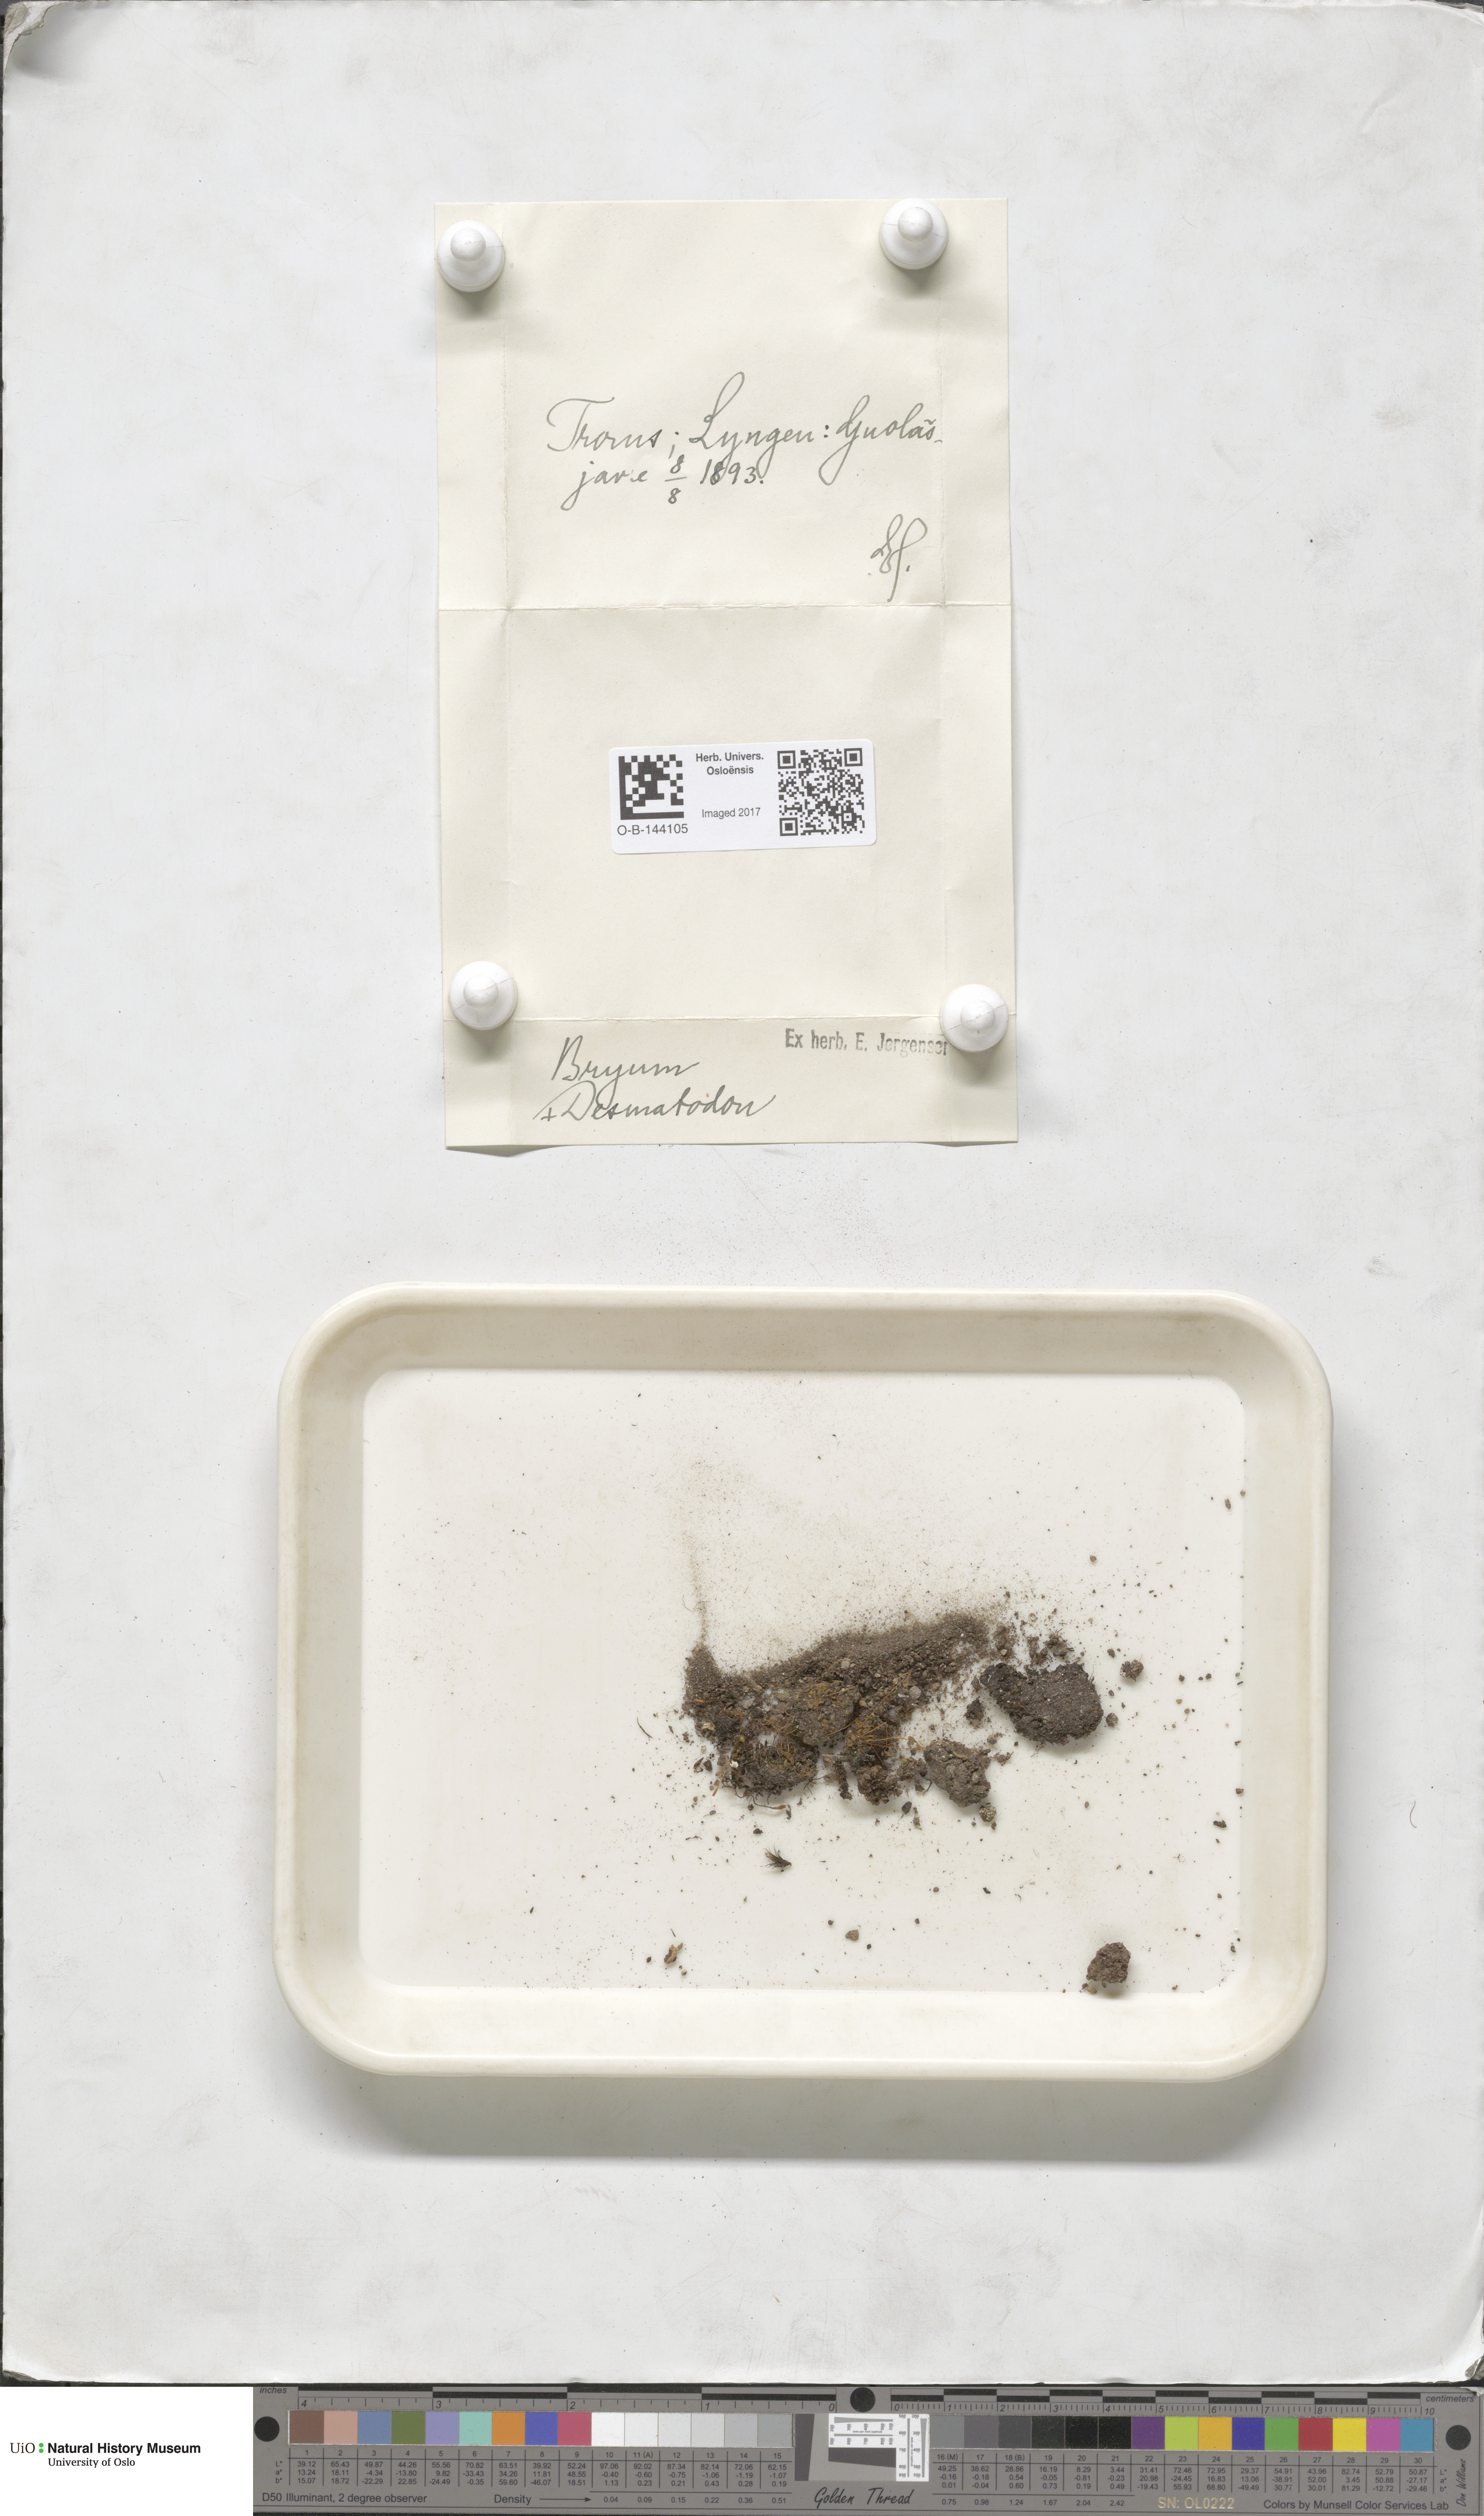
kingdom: Plantae
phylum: Bryophyta
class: Bryopsida
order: Bryales
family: Bryaceae
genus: Bryum
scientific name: Bryum
